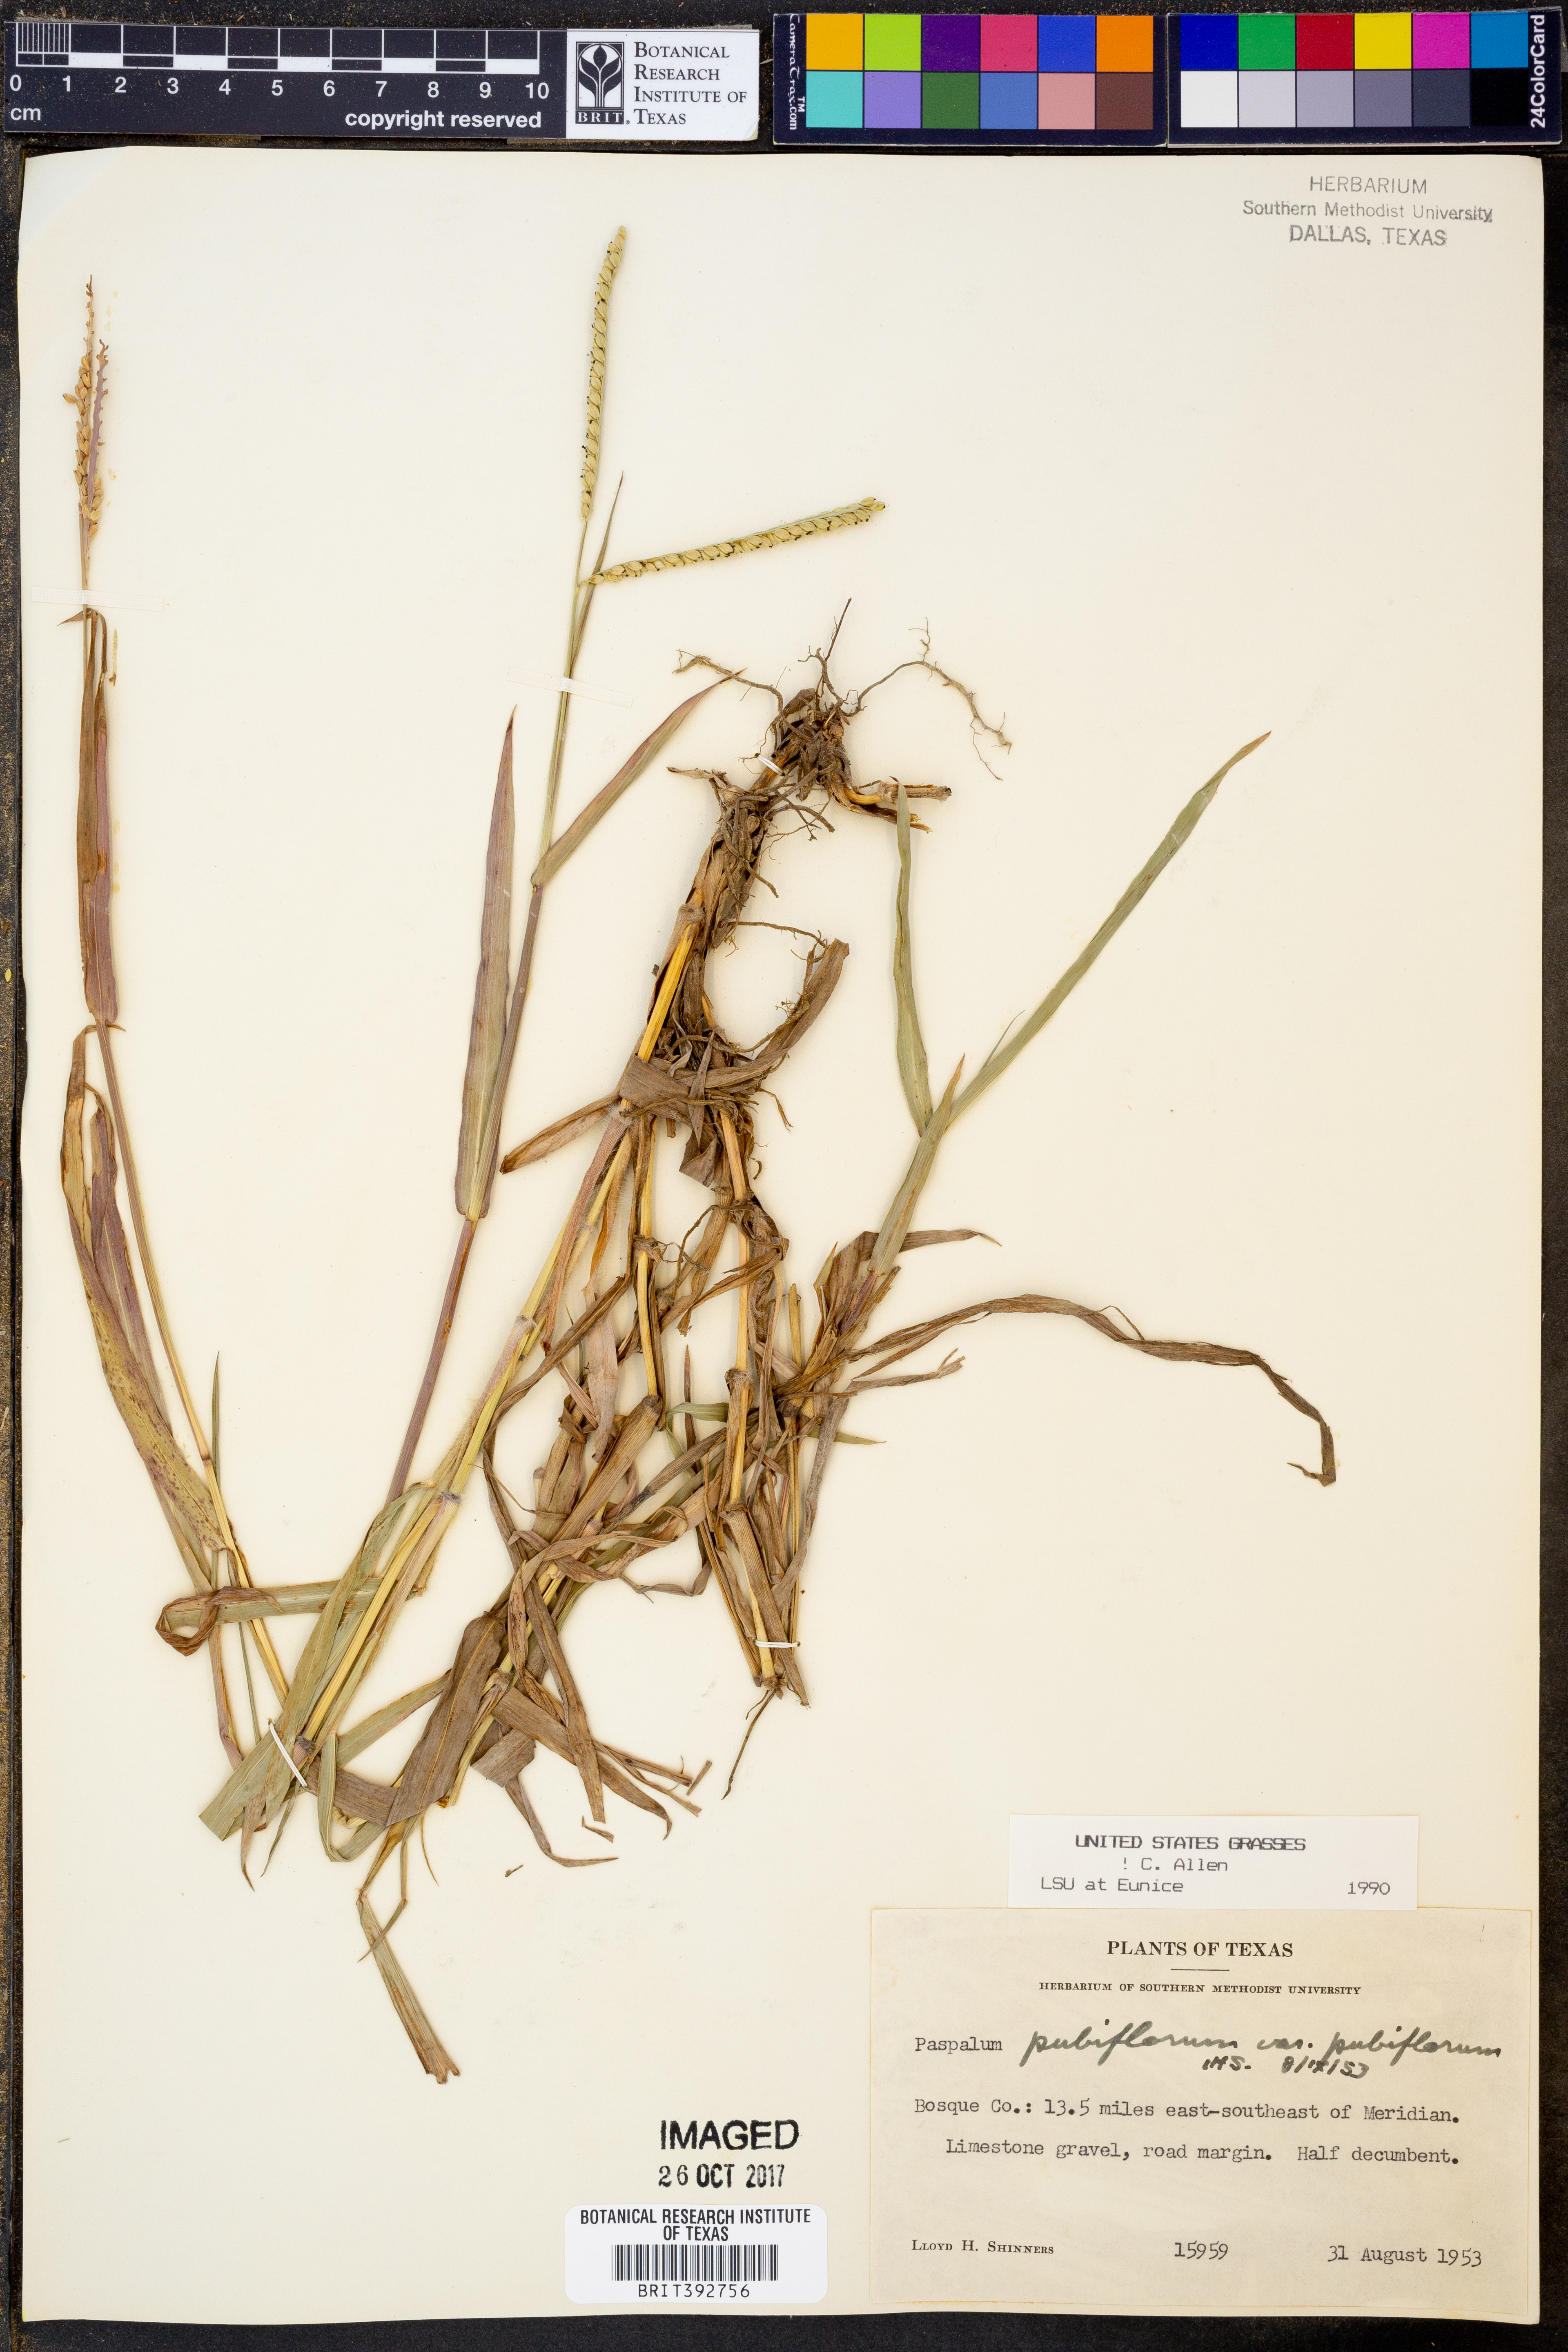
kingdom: Plantae
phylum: Tracheophyta
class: Liliopsida
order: Poales
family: Poaceae
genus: Paspalum
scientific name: Paspalum pubiflorum
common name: Hairy-seed paspalum
